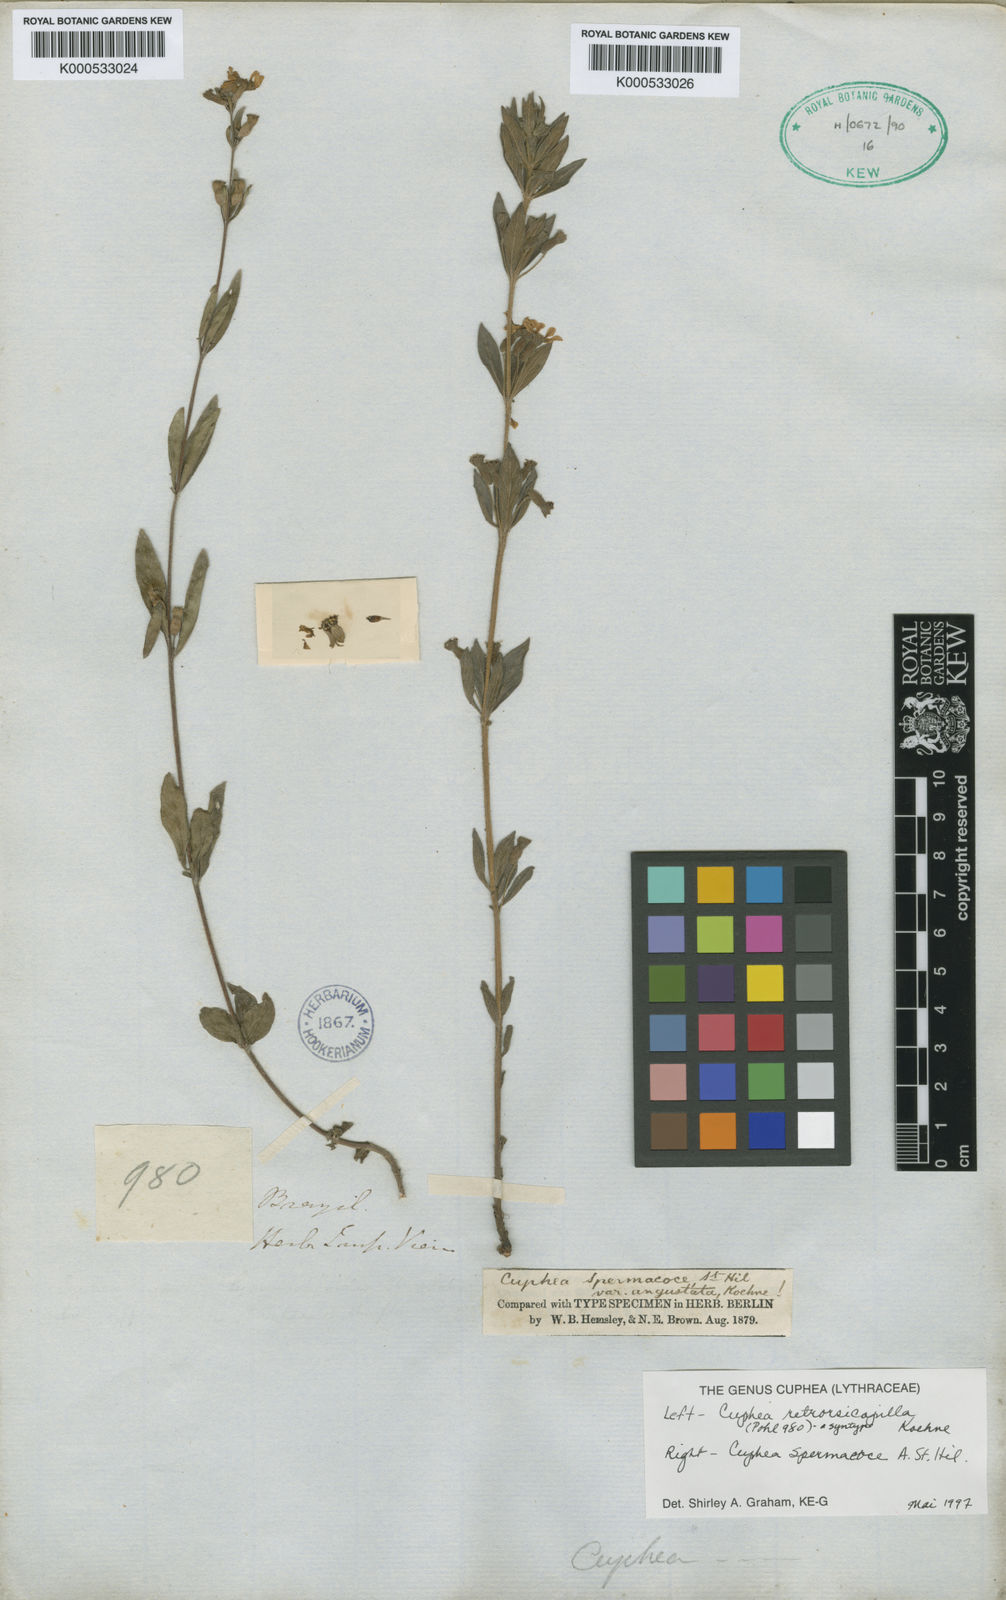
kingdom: Plantae
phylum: Tracheophyta
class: Magnoliopsida
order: Myrtales
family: Lythraceae
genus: Cuphea
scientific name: Cuphea retrorsicapilla
